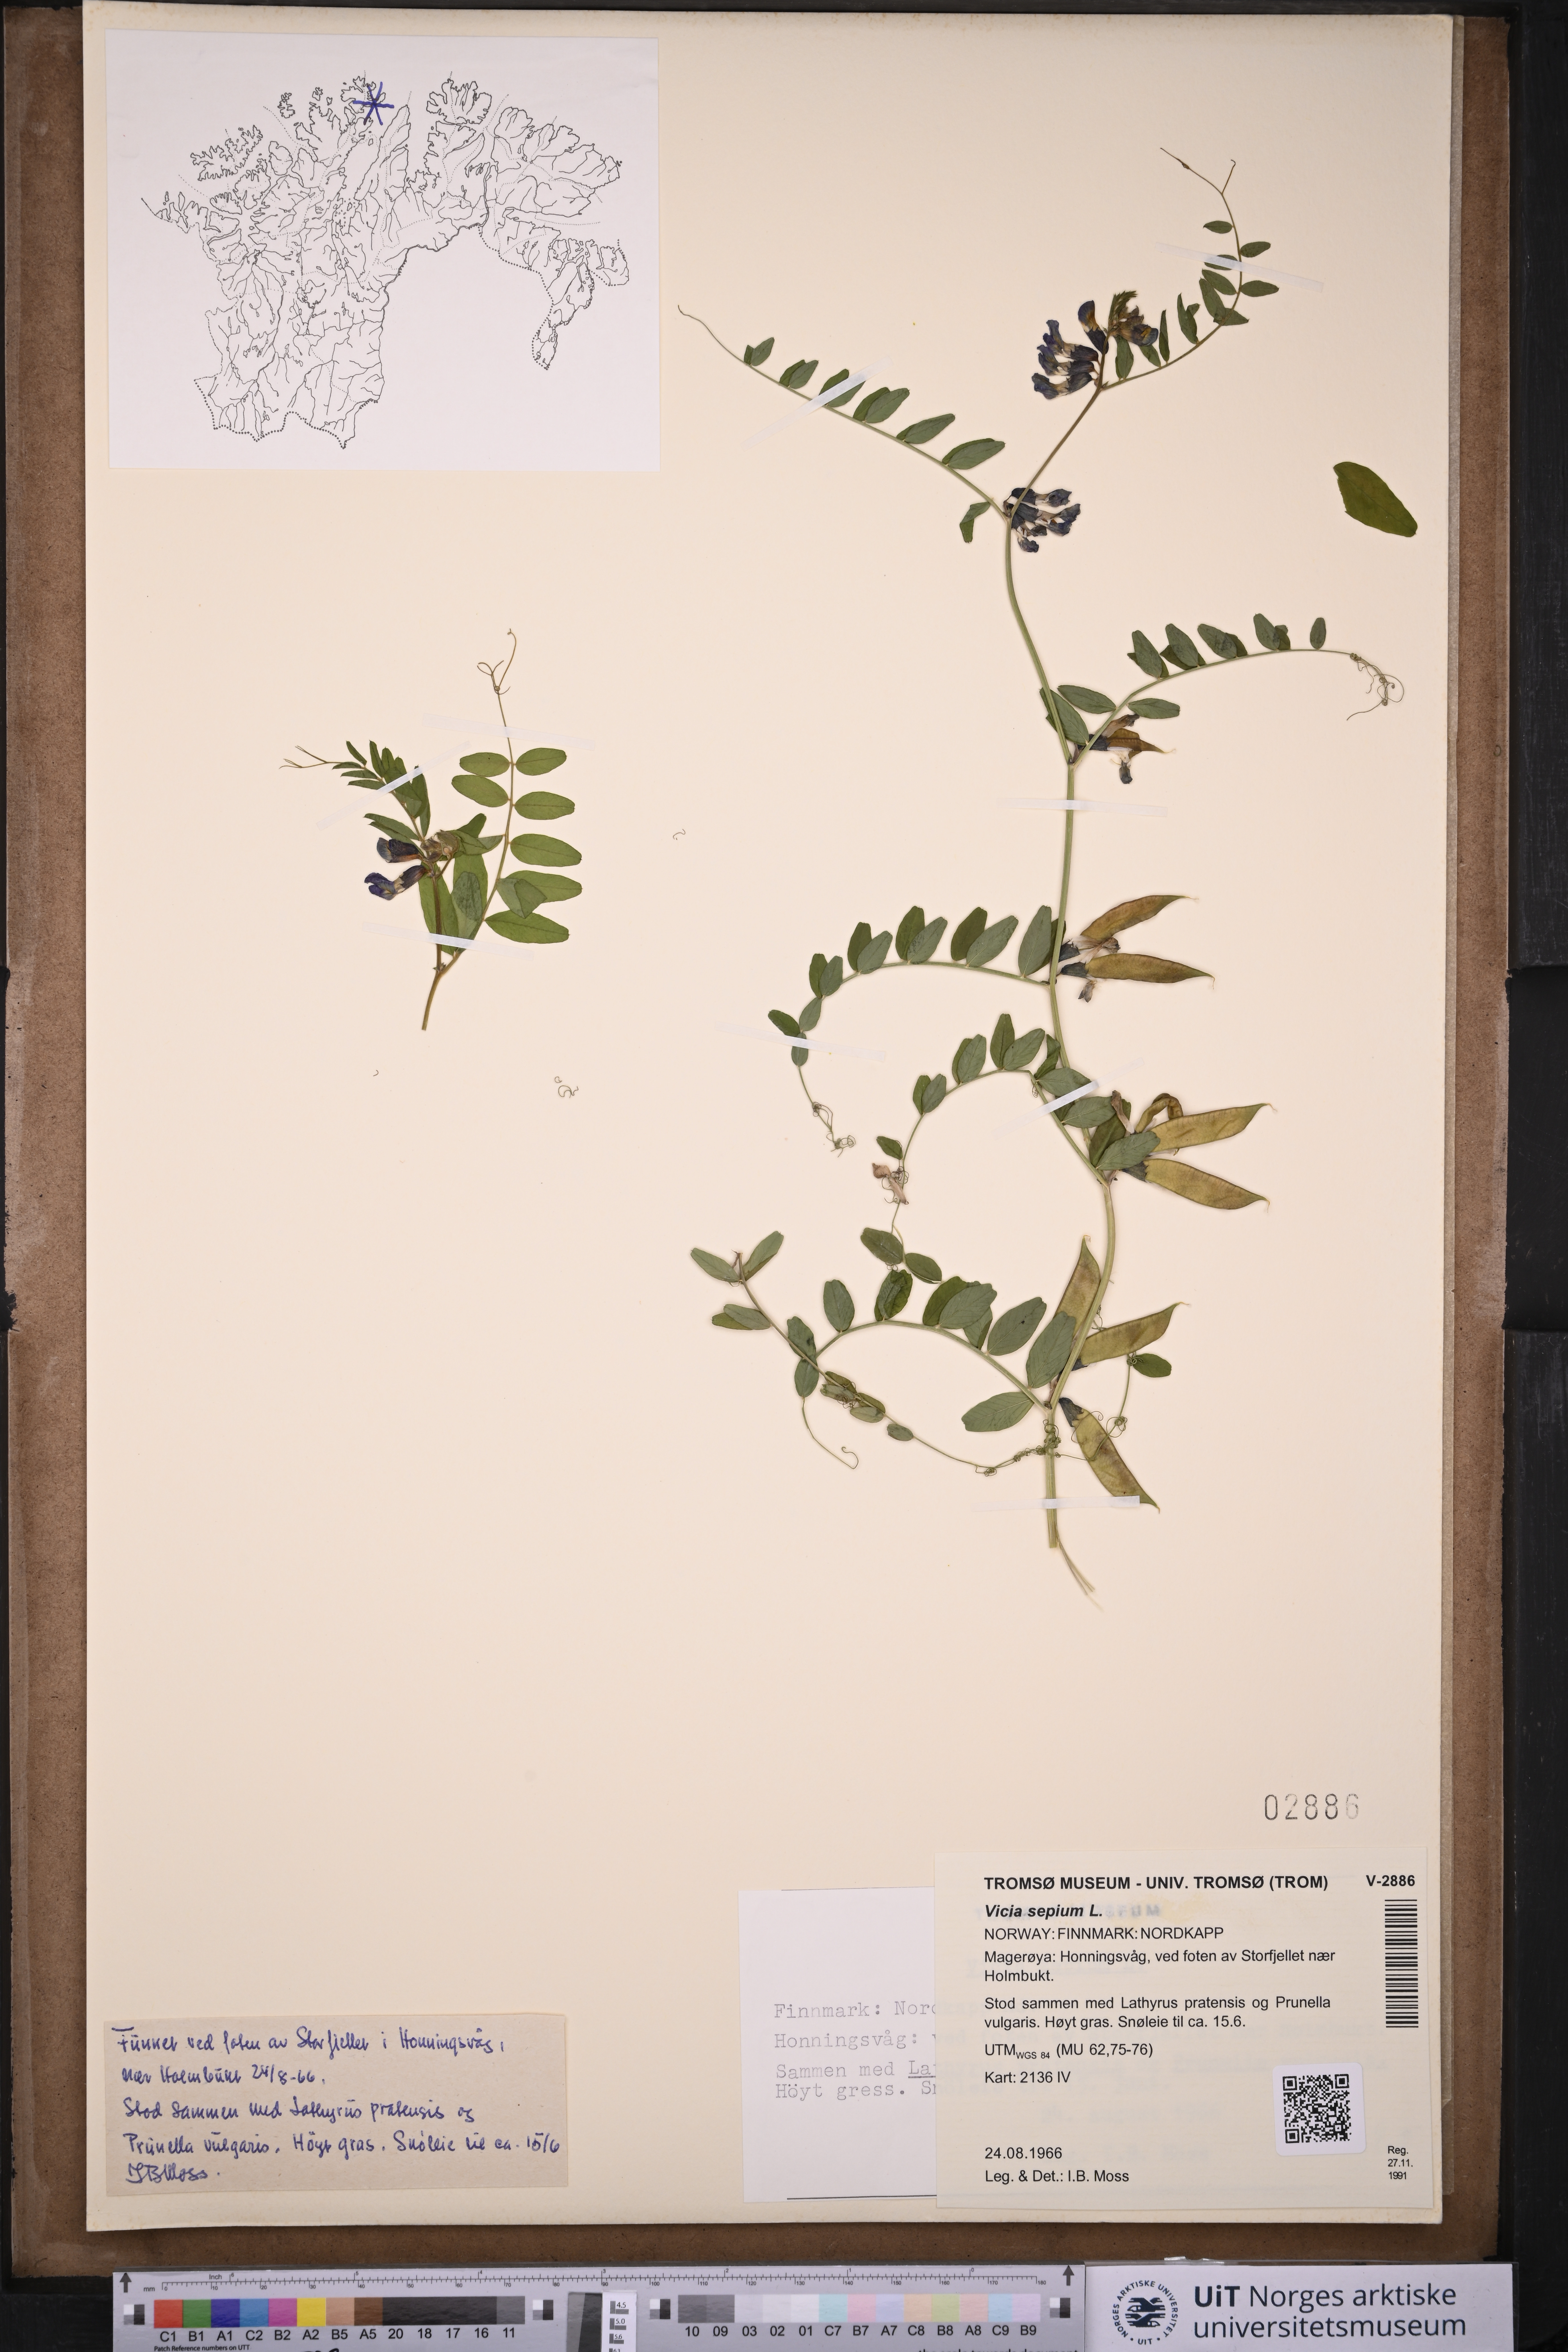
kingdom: Plantae
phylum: Tracheophyta
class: Magnoliopsida
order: Fabales
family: Fabaceae
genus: Vicia
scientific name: Vicia sepium
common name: Bush vetch
